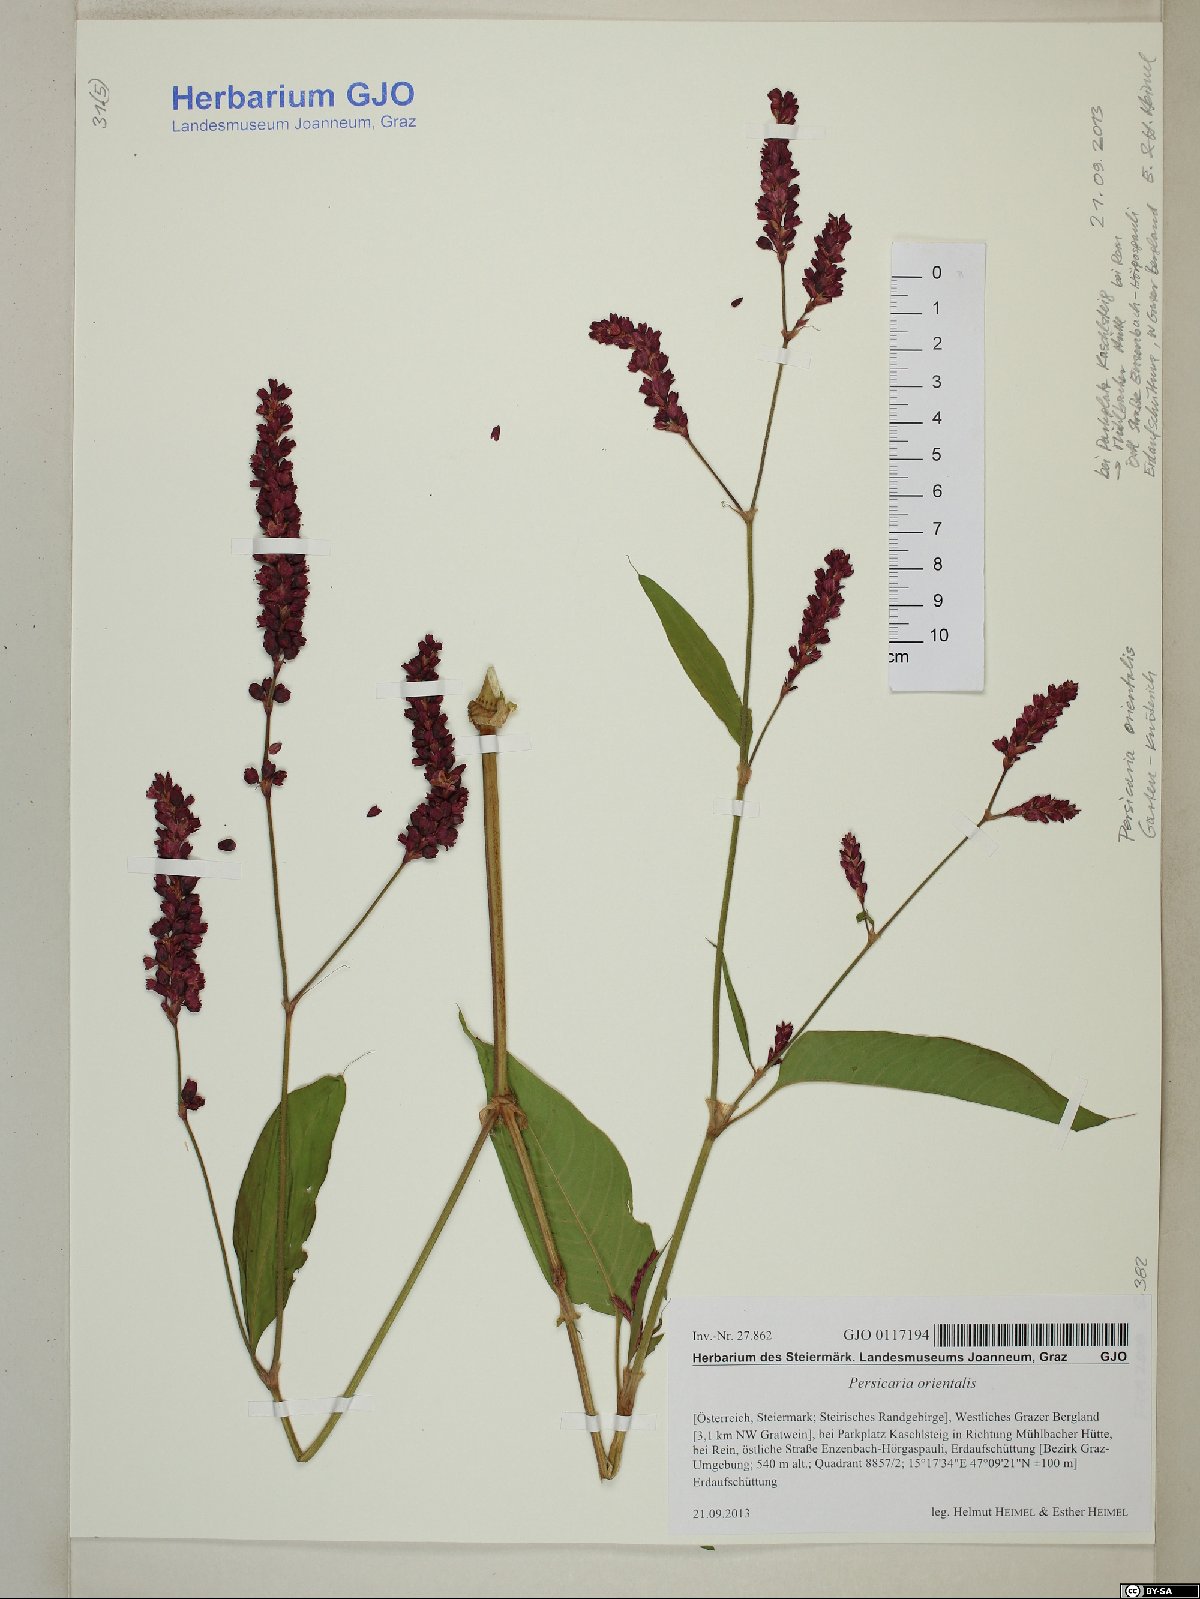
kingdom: Plantae
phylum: Tracheophyta
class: Magnoliopsida
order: Caryophyllales
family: Polygonaceae
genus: Persicaria
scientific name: Persicaria orientalis
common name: Kiss-me-over-the-garden-gate
